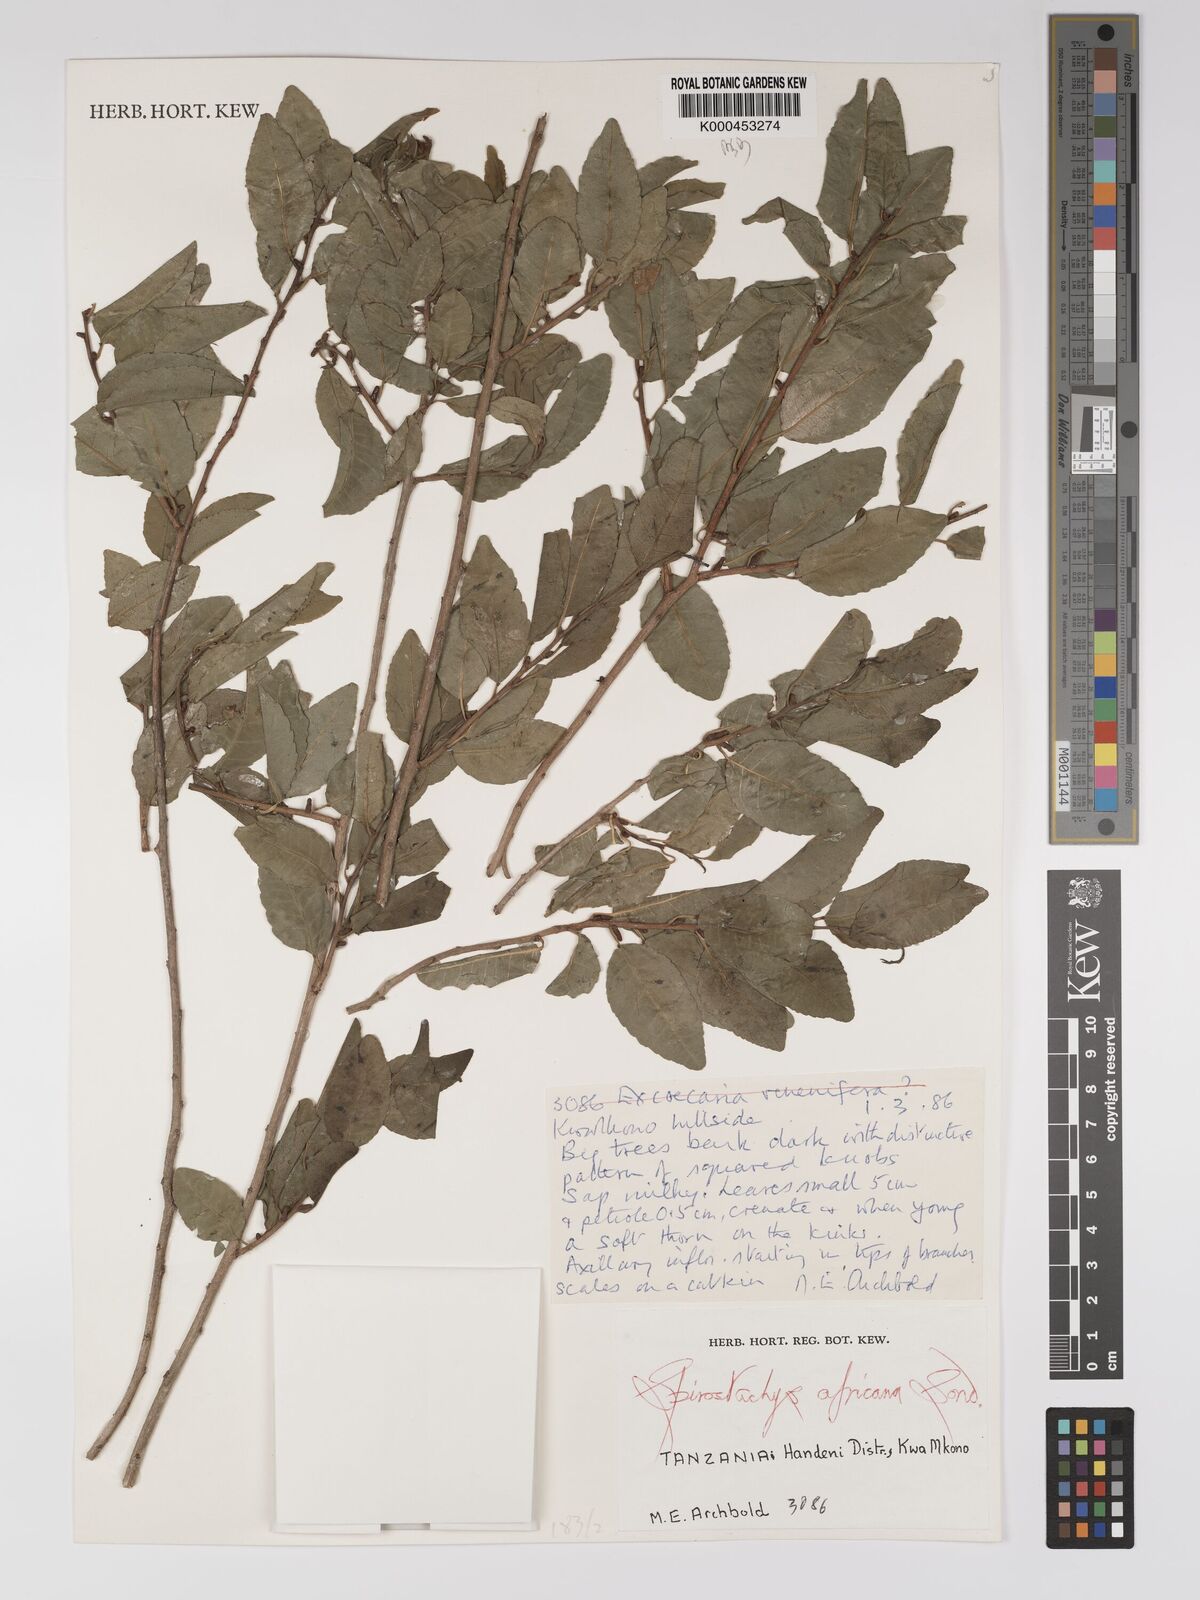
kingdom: Plantae
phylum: Tracheophyta
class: Magnoliopsida
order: Malpighiales
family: Euphorbiaceae
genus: Spirostachys
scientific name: Spirostachys africana
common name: Tamboti
